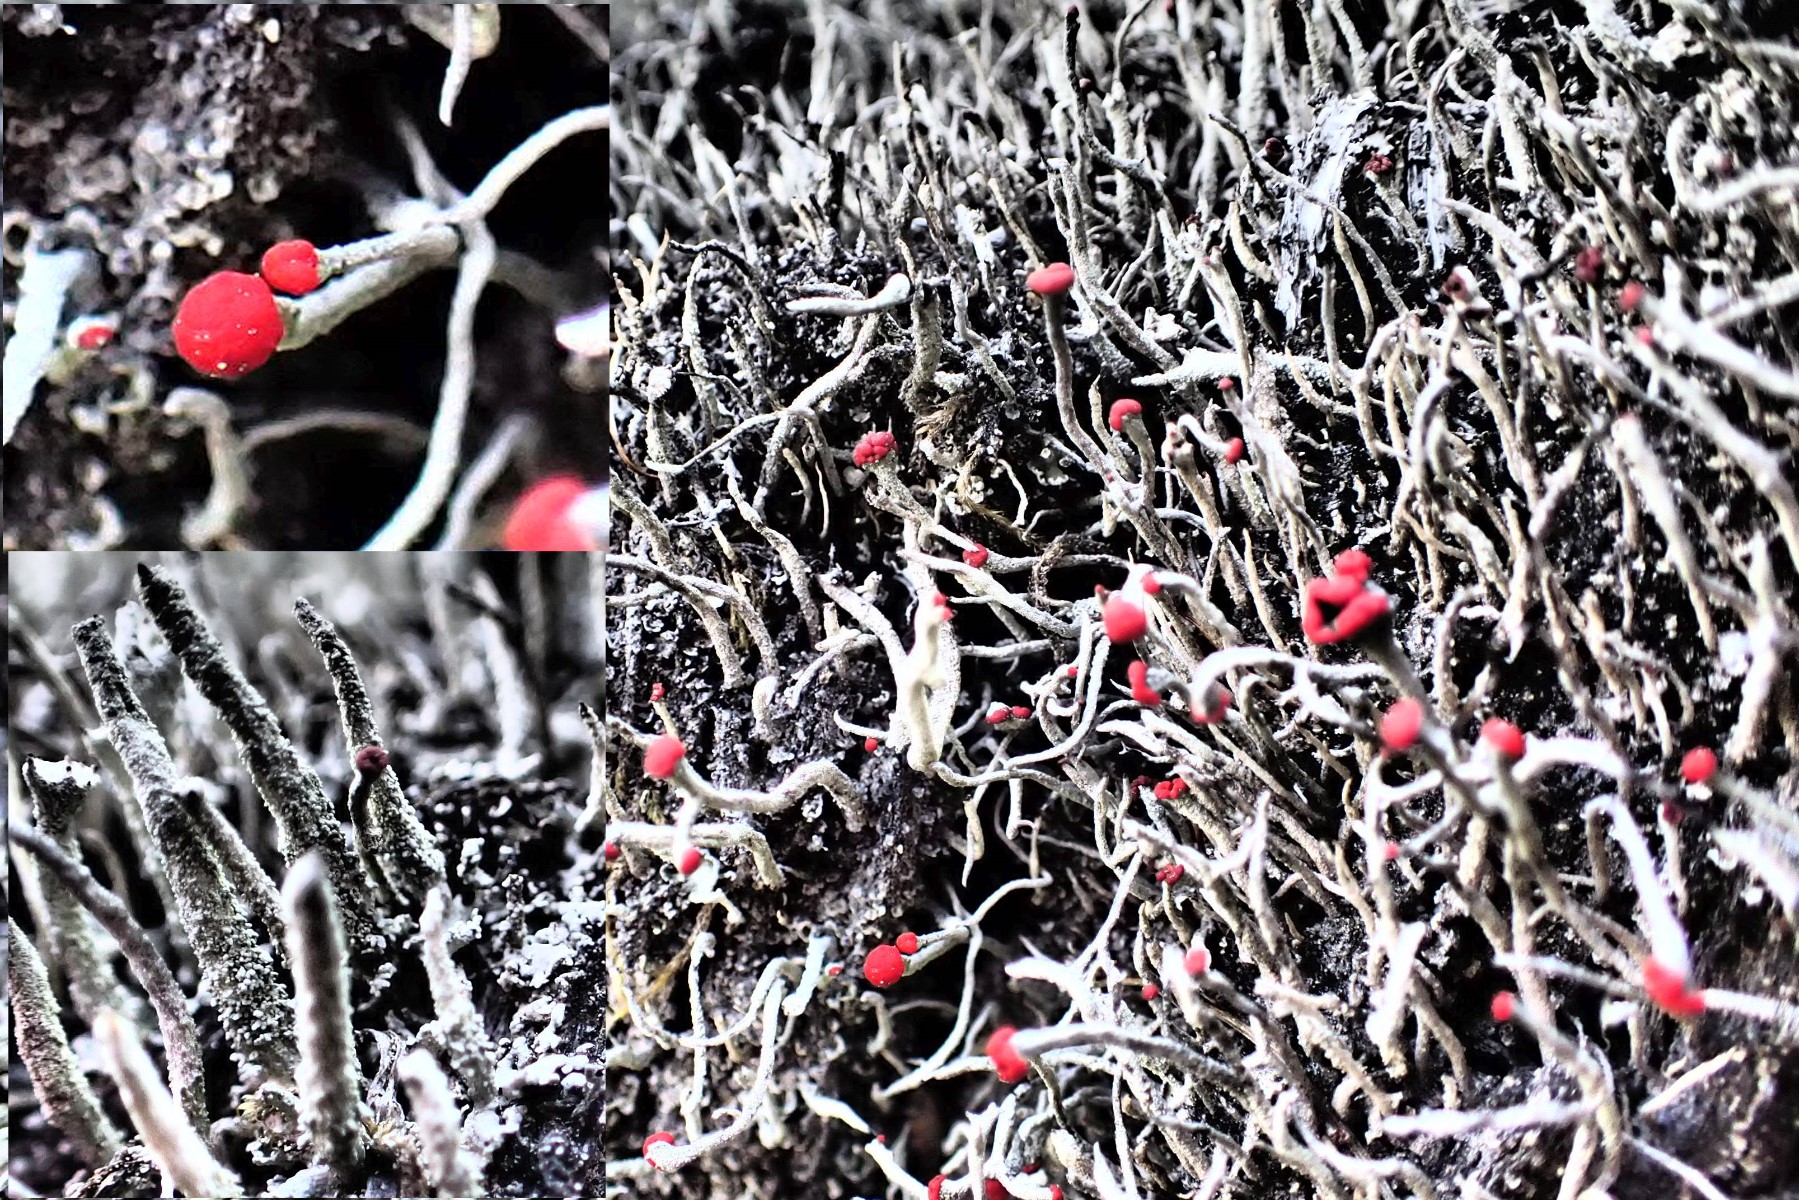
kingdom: Fungi
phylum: Ascomycota
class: Lecanoromycetes
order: Lecanorales
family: Cladoniaceae
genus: Cladonia
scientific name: Cladonia floerkeana
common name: lakrød bægerlav
